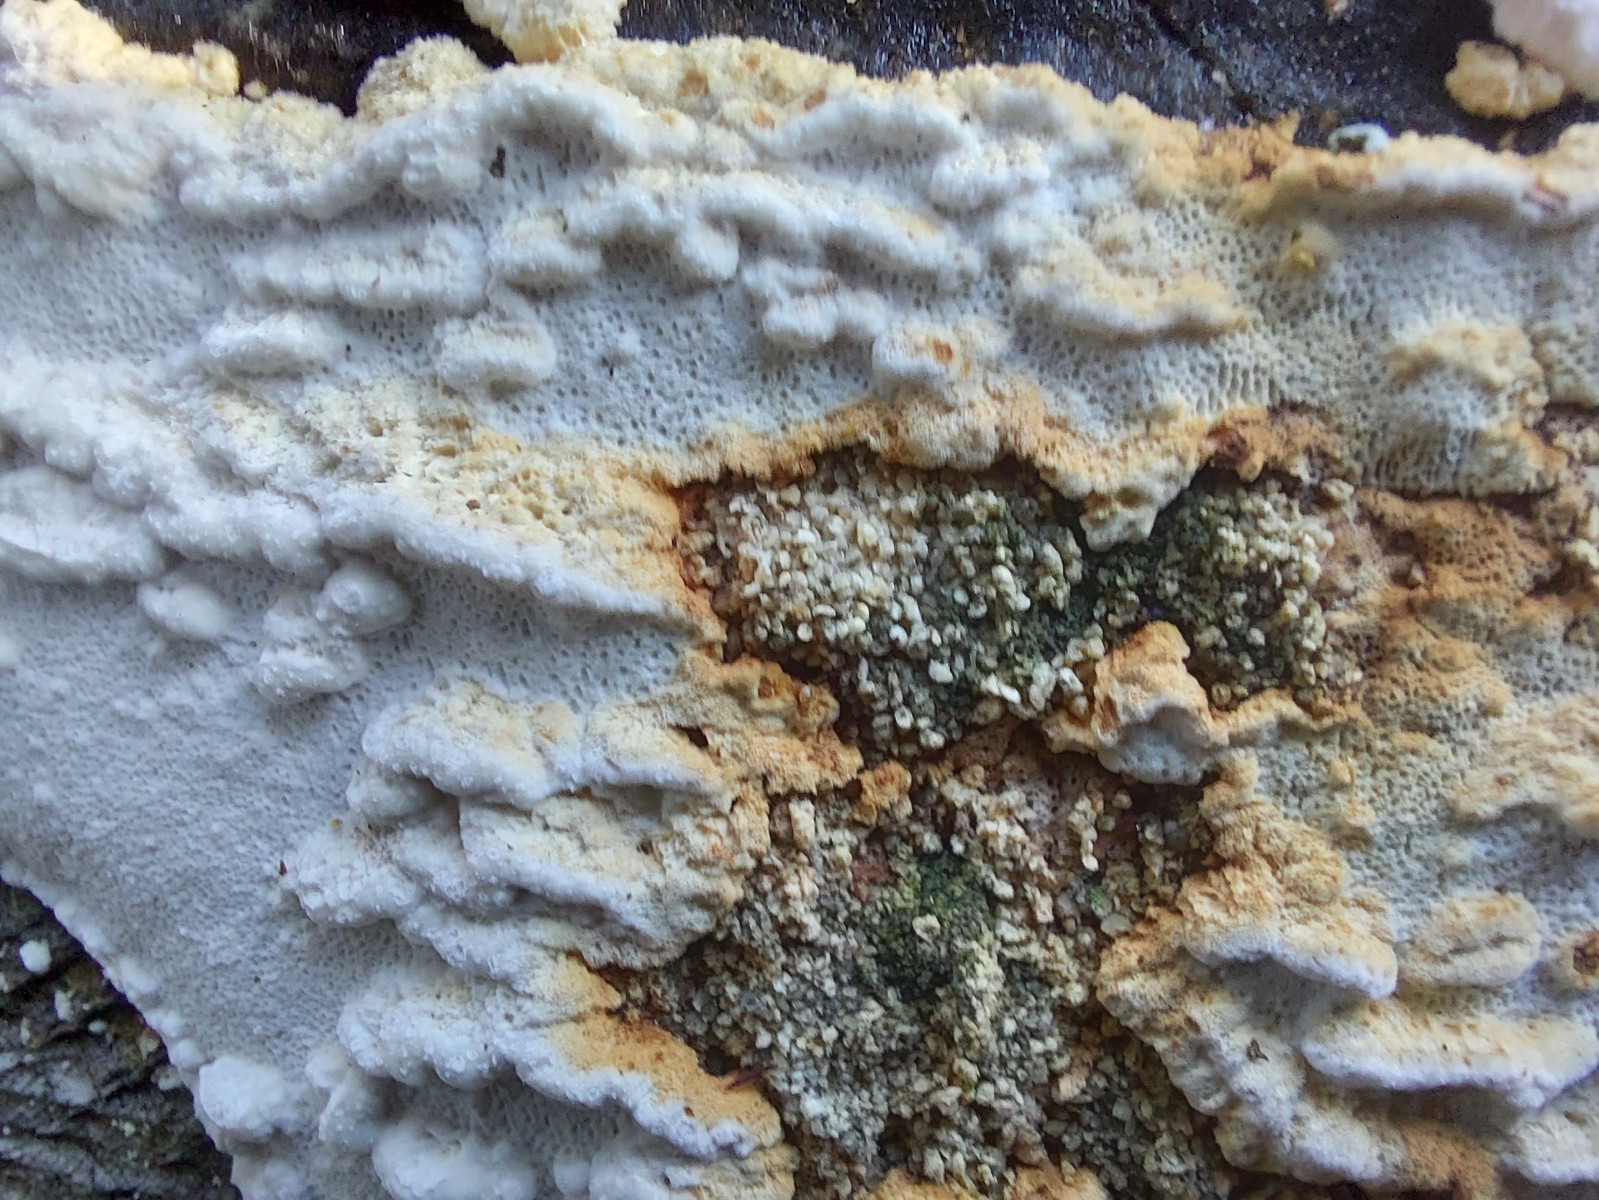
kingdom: Fungi
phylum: Basidiomycota
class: Agaricomycetes
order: Polyporales
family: Fomitopsidaceae
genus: Neoantrodia
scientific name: Neoantrodia serialis
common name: række-sejporesvamp
